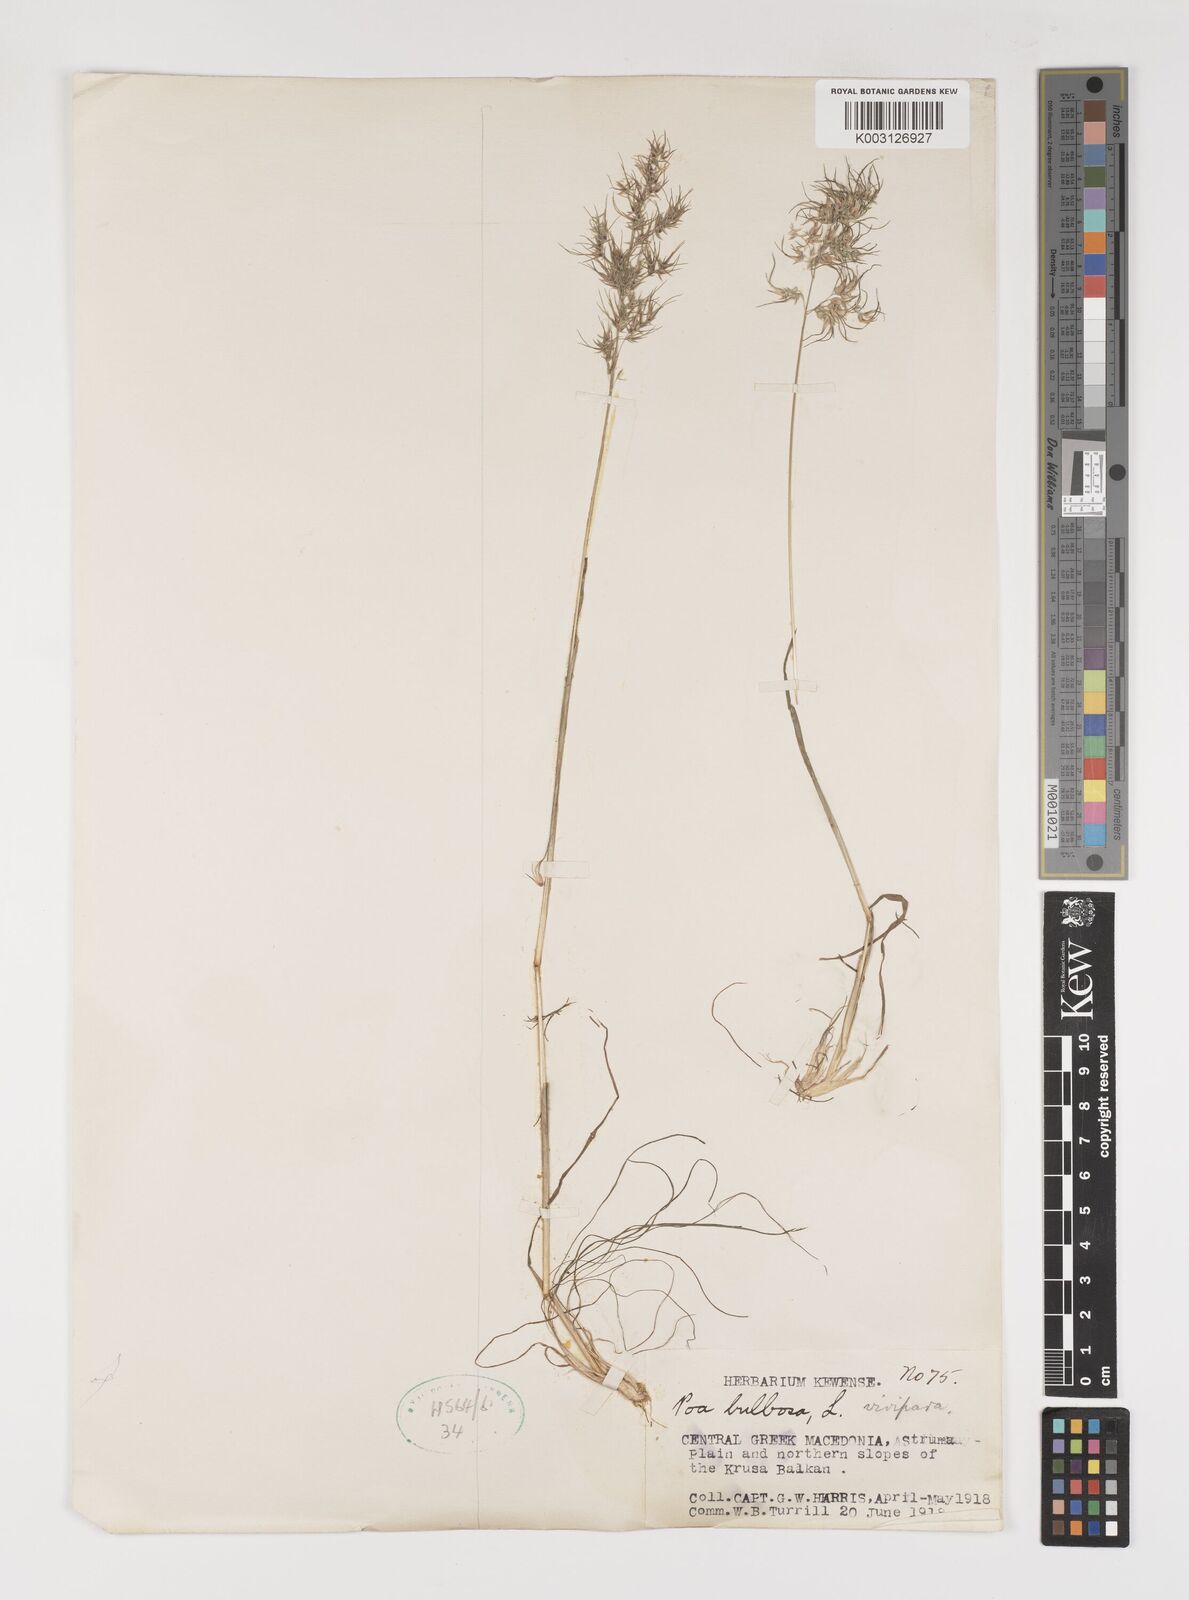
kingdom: Plantae
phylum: Tracheophyta
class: Liliopsida
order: Poales
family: Poaceae
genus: Poa
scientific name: Poa bulbosa
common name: Bulbous bluegrass
